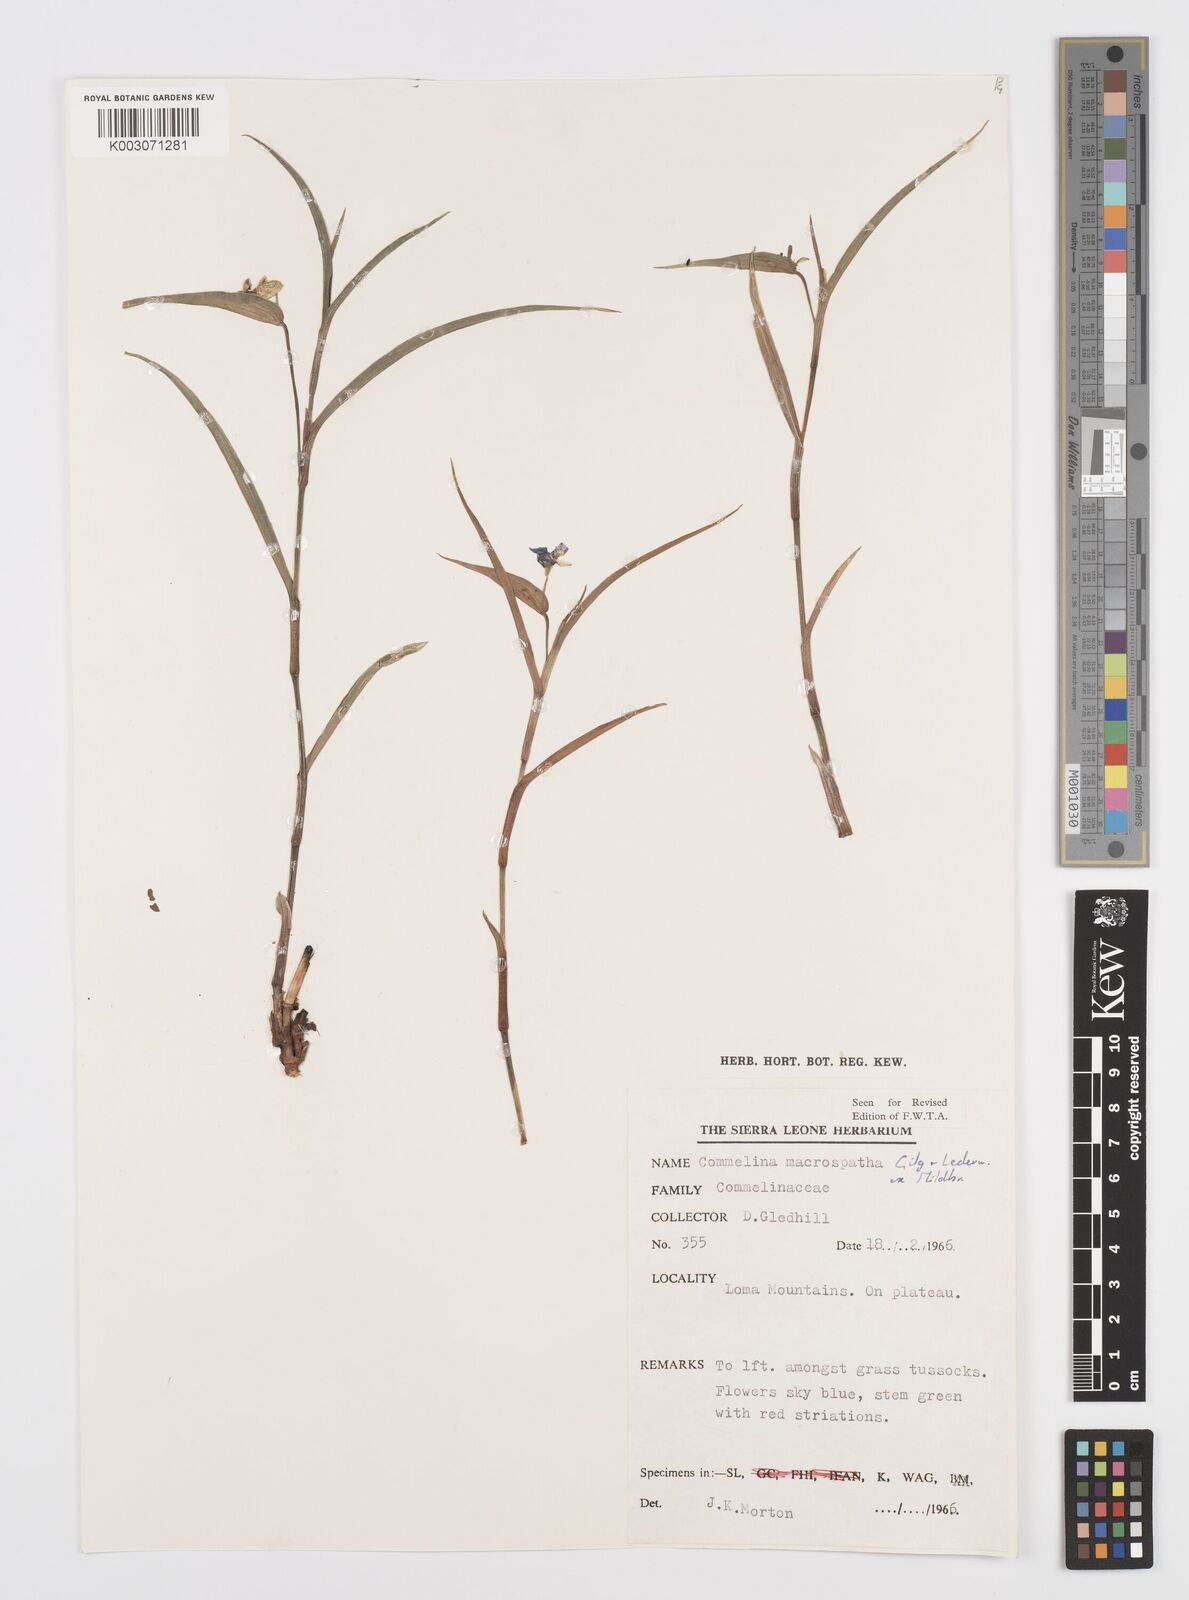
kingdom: Plantae
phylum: Tracheophyta
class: Liliopsida
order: Commelinales
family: Commelinaceae
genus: Commelina
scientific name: Commelina macrospatha
